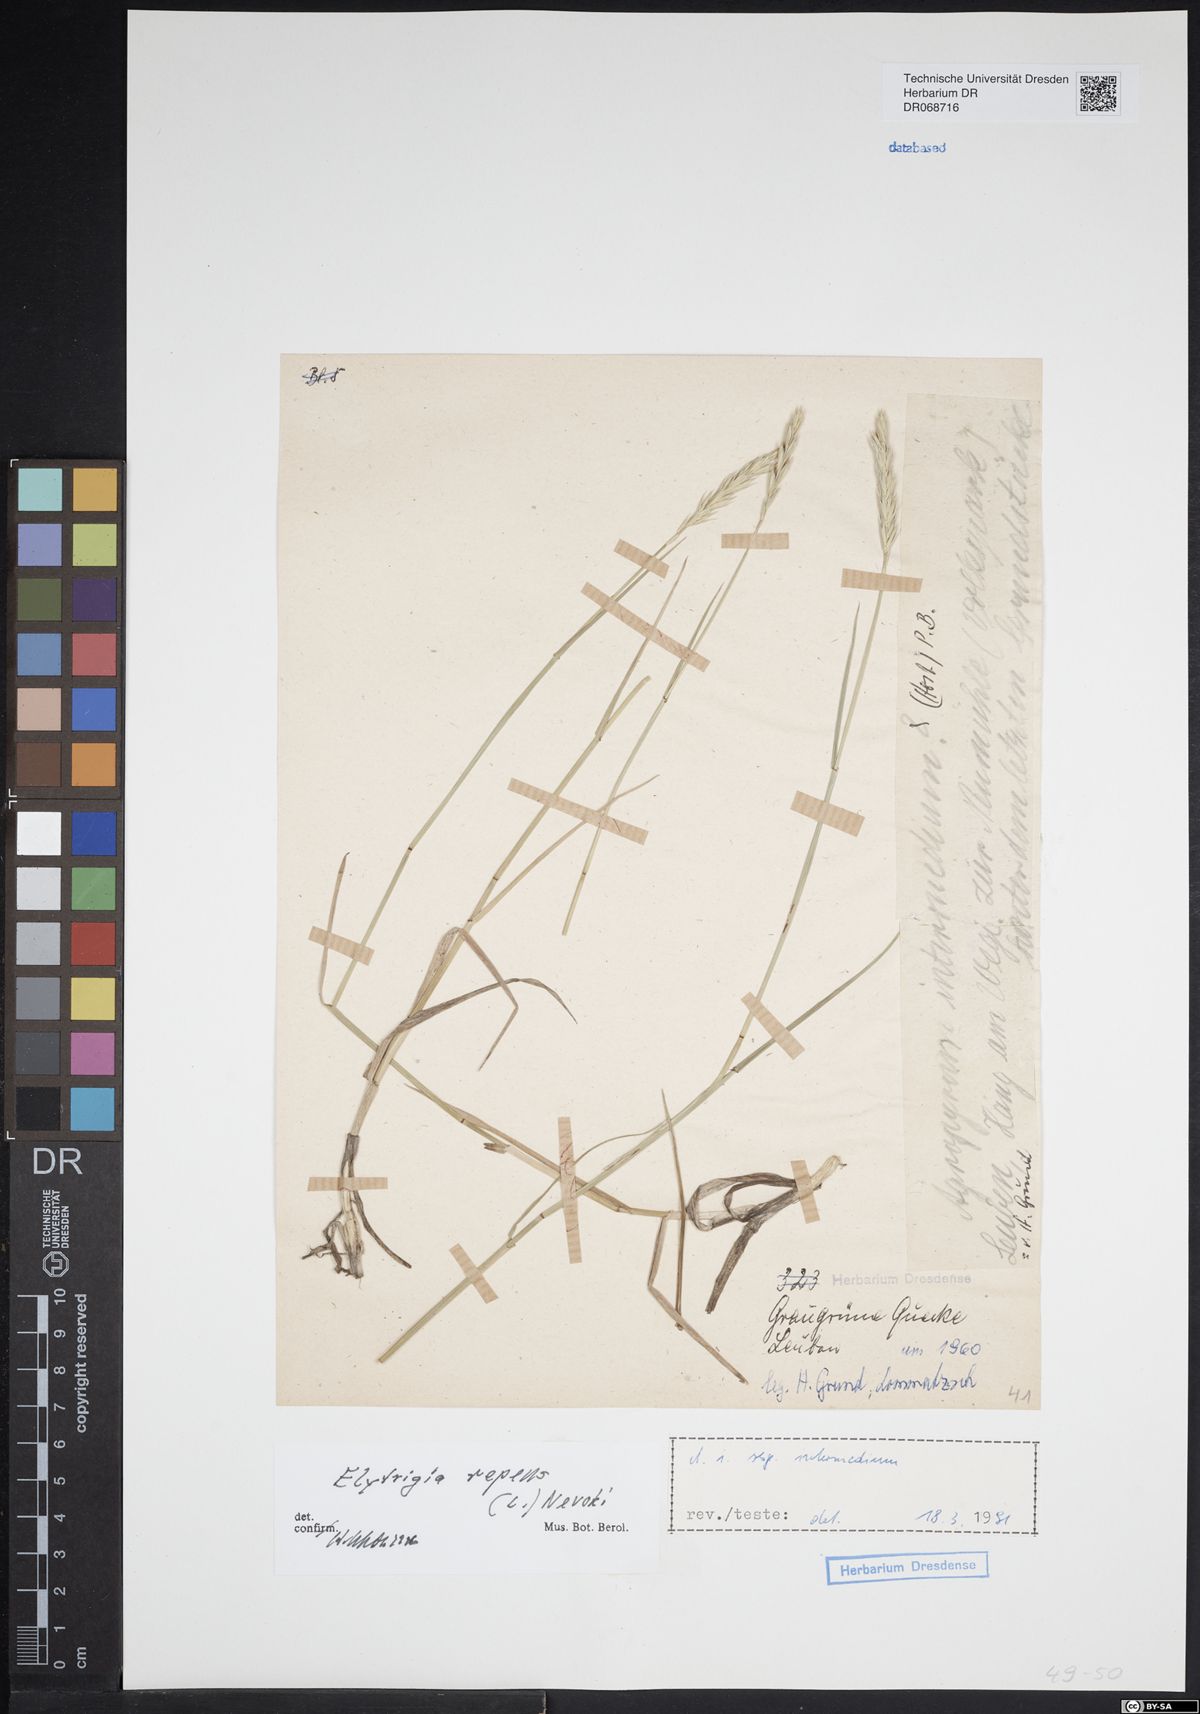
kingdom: Plantae
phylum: Tracheophyta
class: Liliopsida
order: Poales
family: Poaceae
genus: Elymus
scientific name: Elymus repens
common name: Quackgrass
